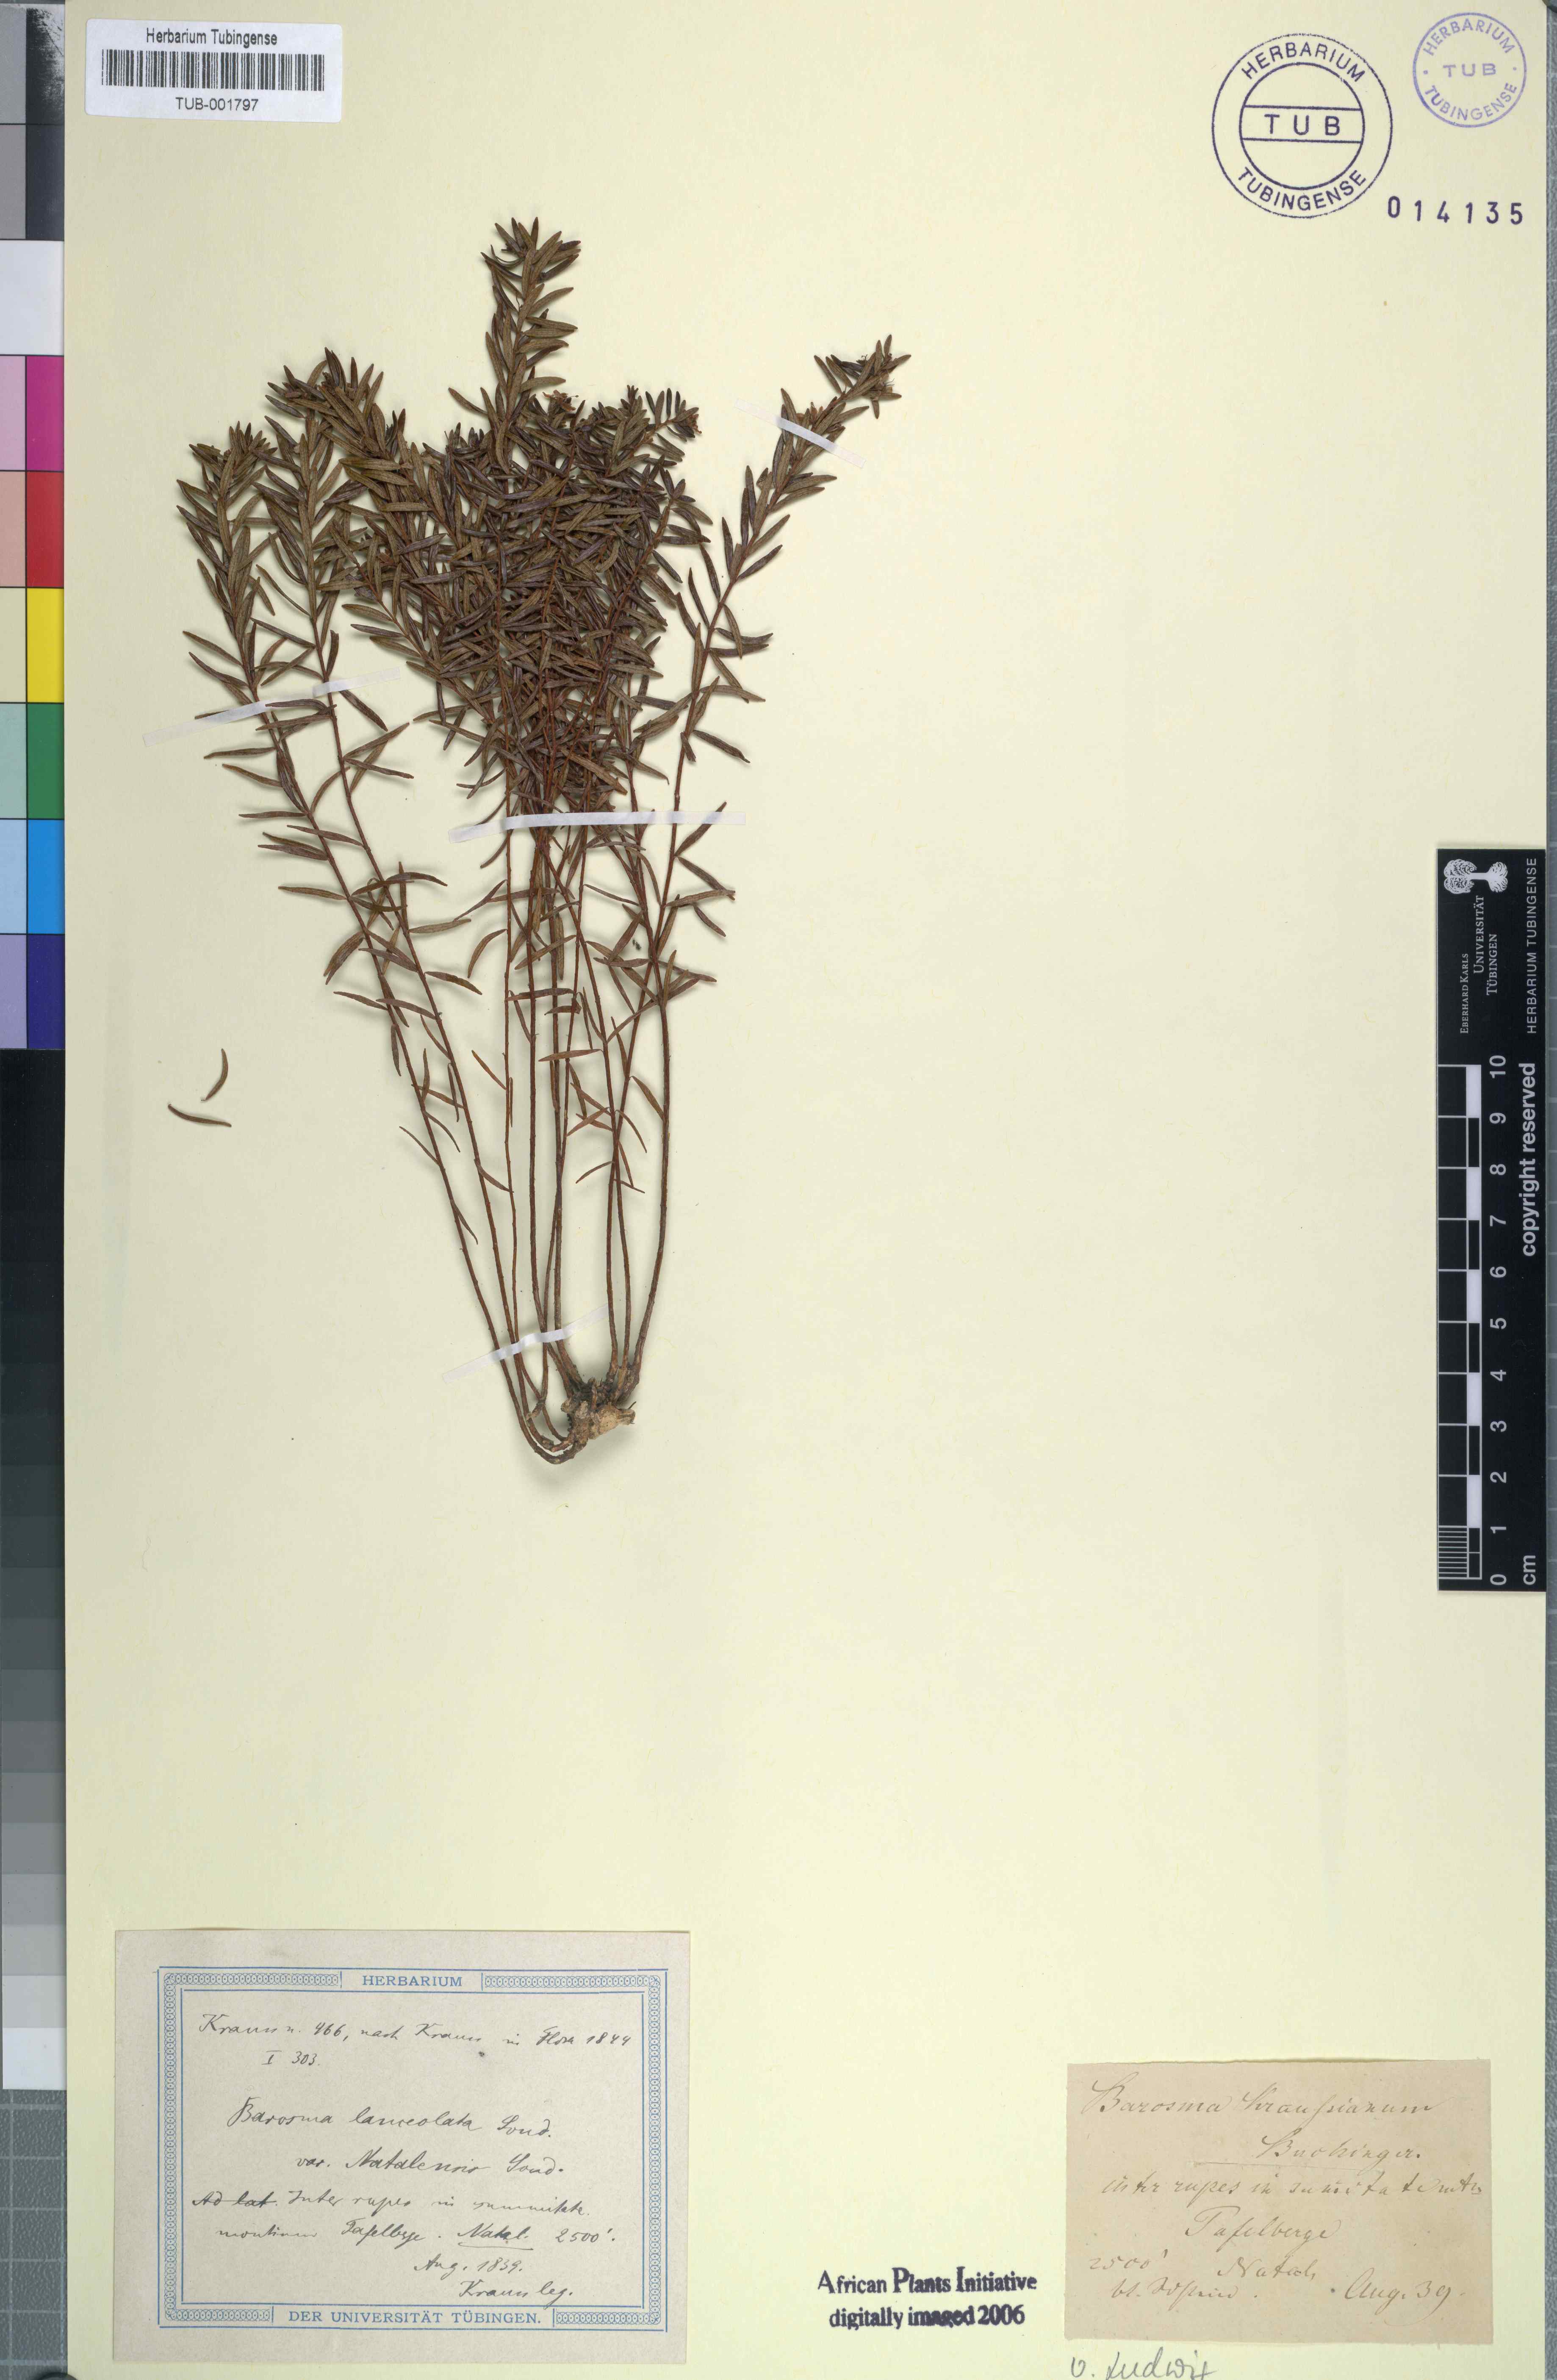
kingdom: Plantae
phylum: Tracheophyta
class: Magnoliopsida
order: Sapindales
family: Rutaceae
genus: Agathosma
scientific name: Agathosma ovata
